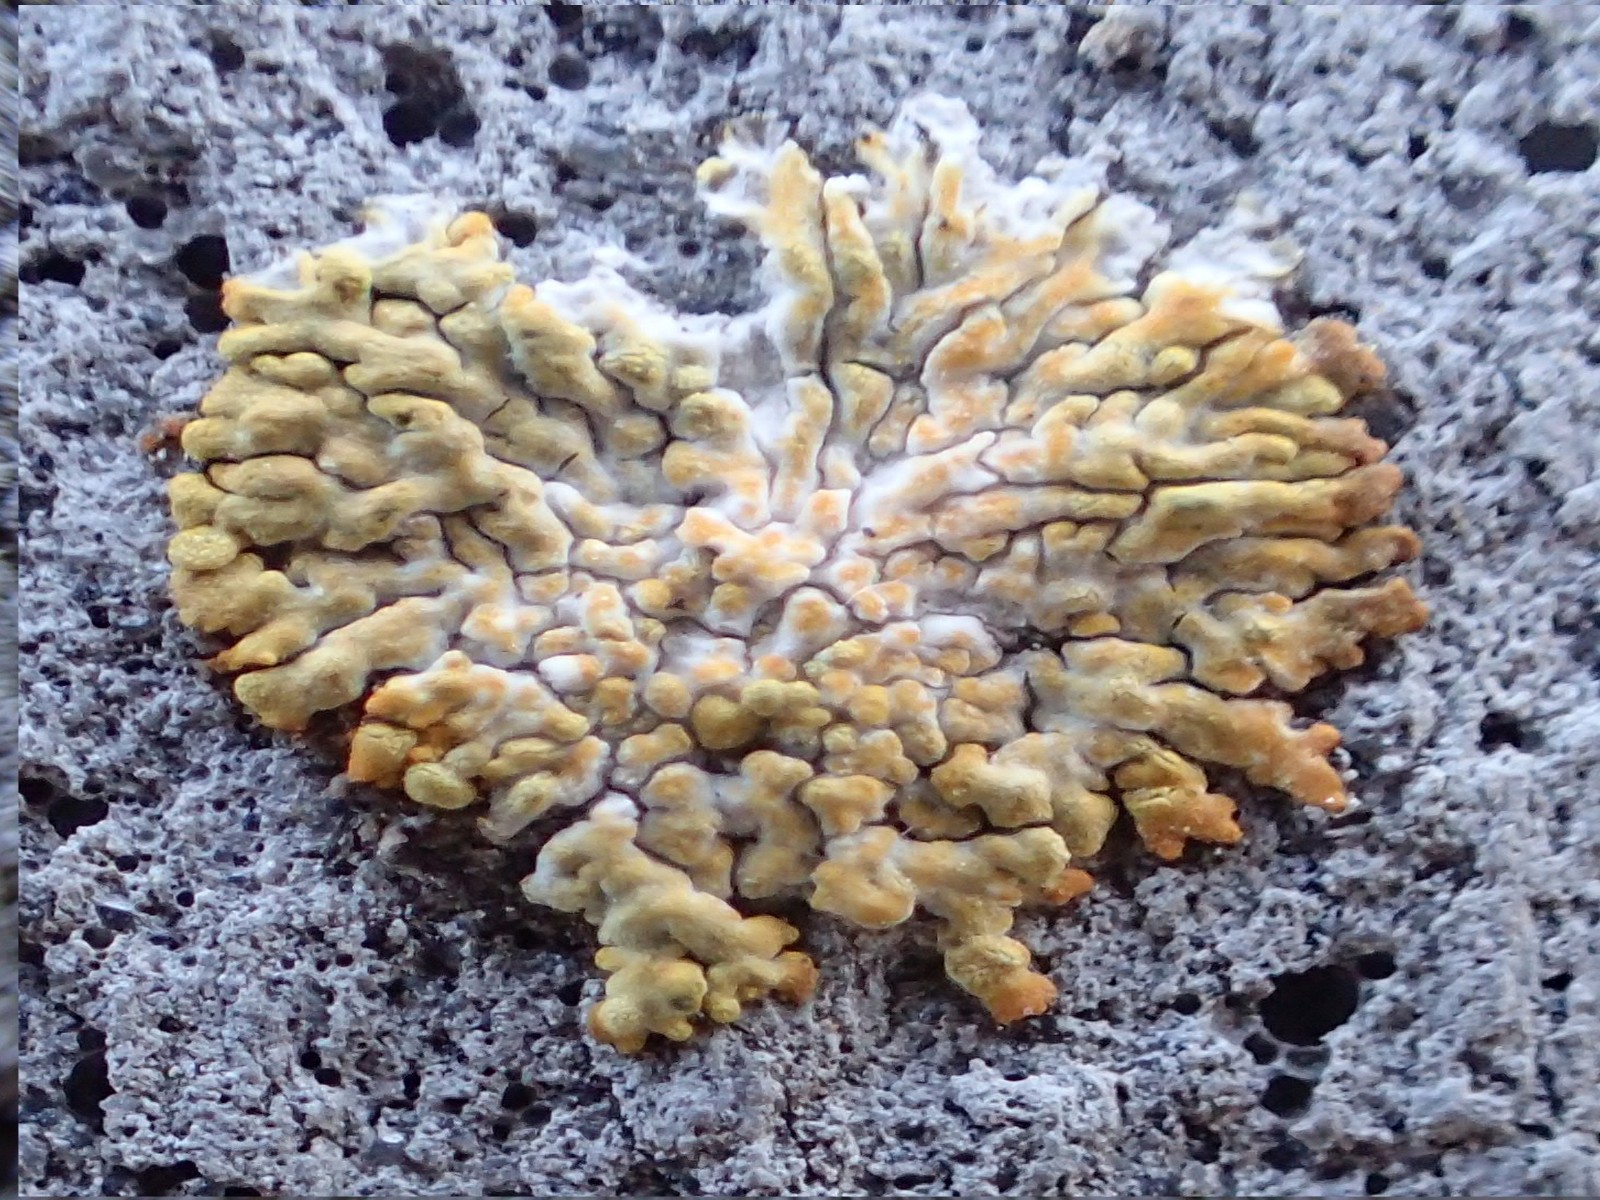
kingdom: Fungi
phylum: Ascomycota
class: Lecanoromycetes
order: Teloschistales
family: Teloschistaceae
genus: Calogaya
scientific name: Calogaya decipiens
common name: knudret orangelav
